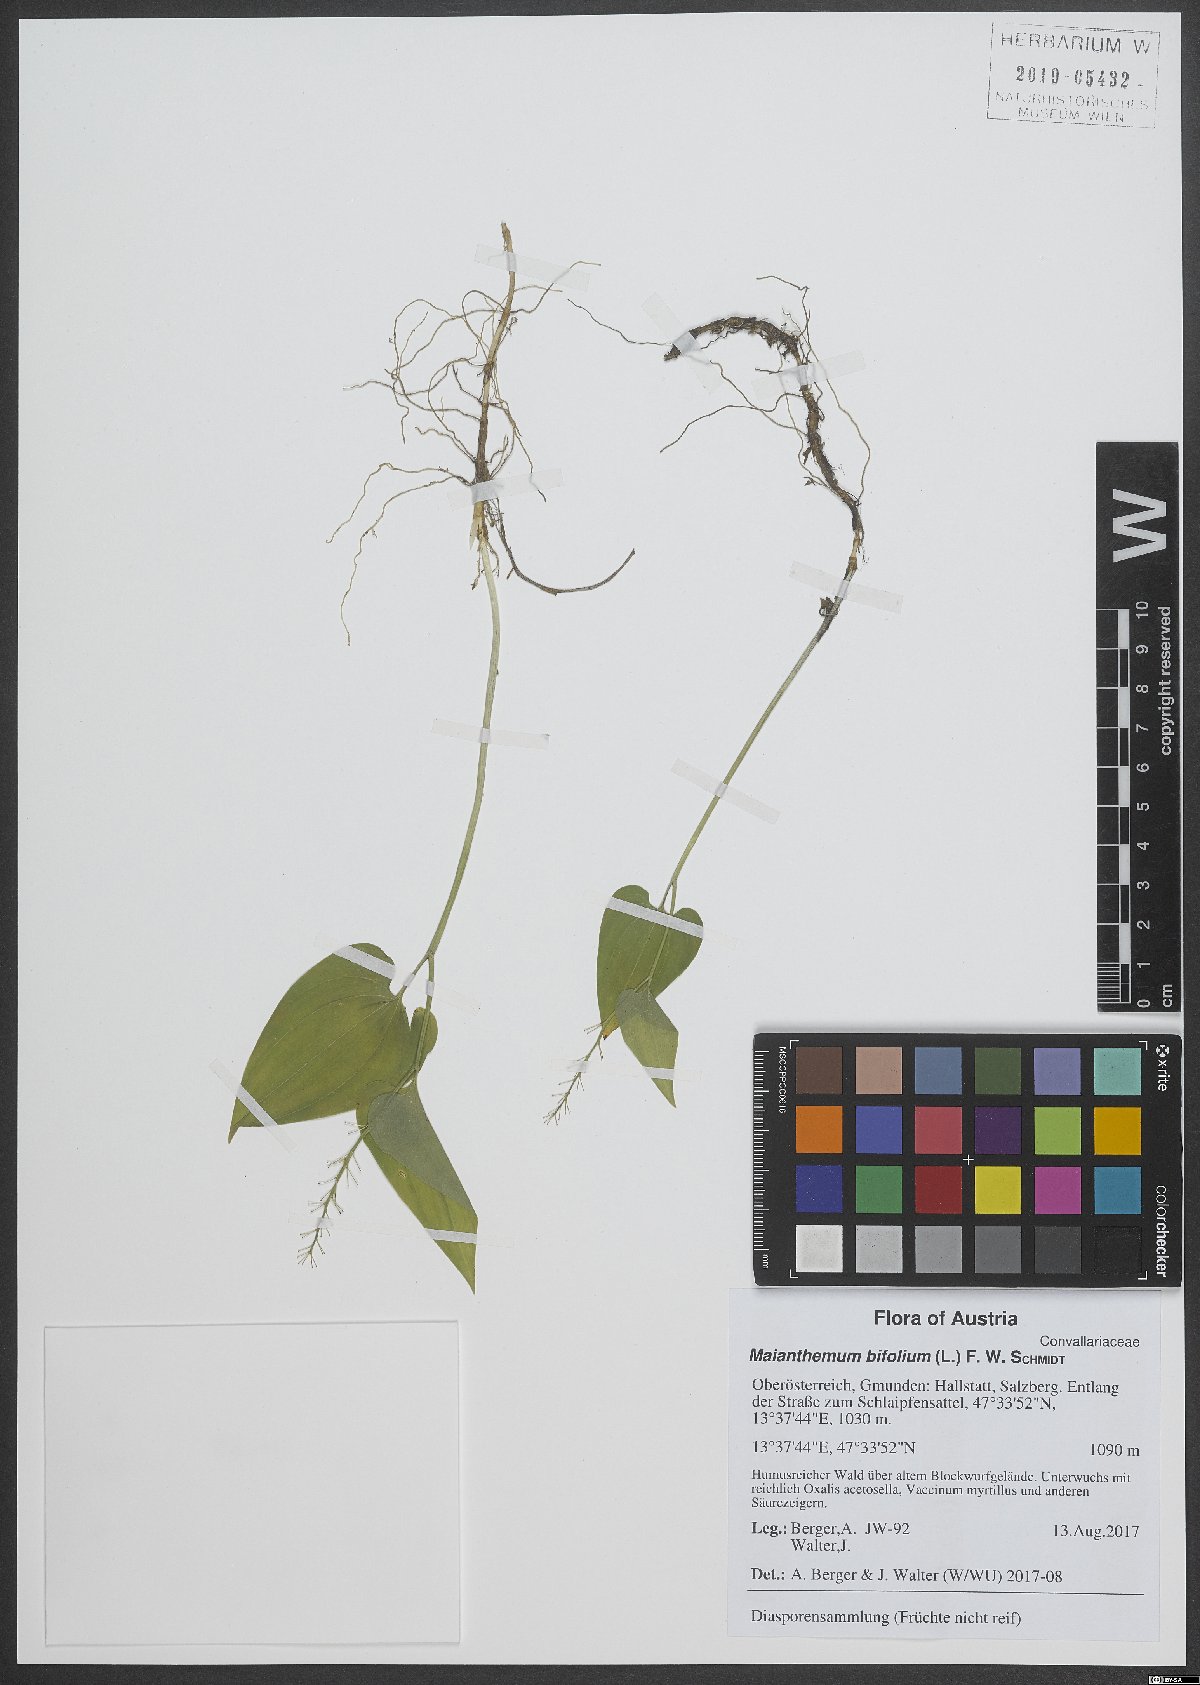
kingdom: Plantae
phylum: Tracheophyta
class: Liliopsida
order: Asparagales
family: Asparagaceae
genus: Maianthemum
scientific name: Maianthemum bifolium
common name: May lily
